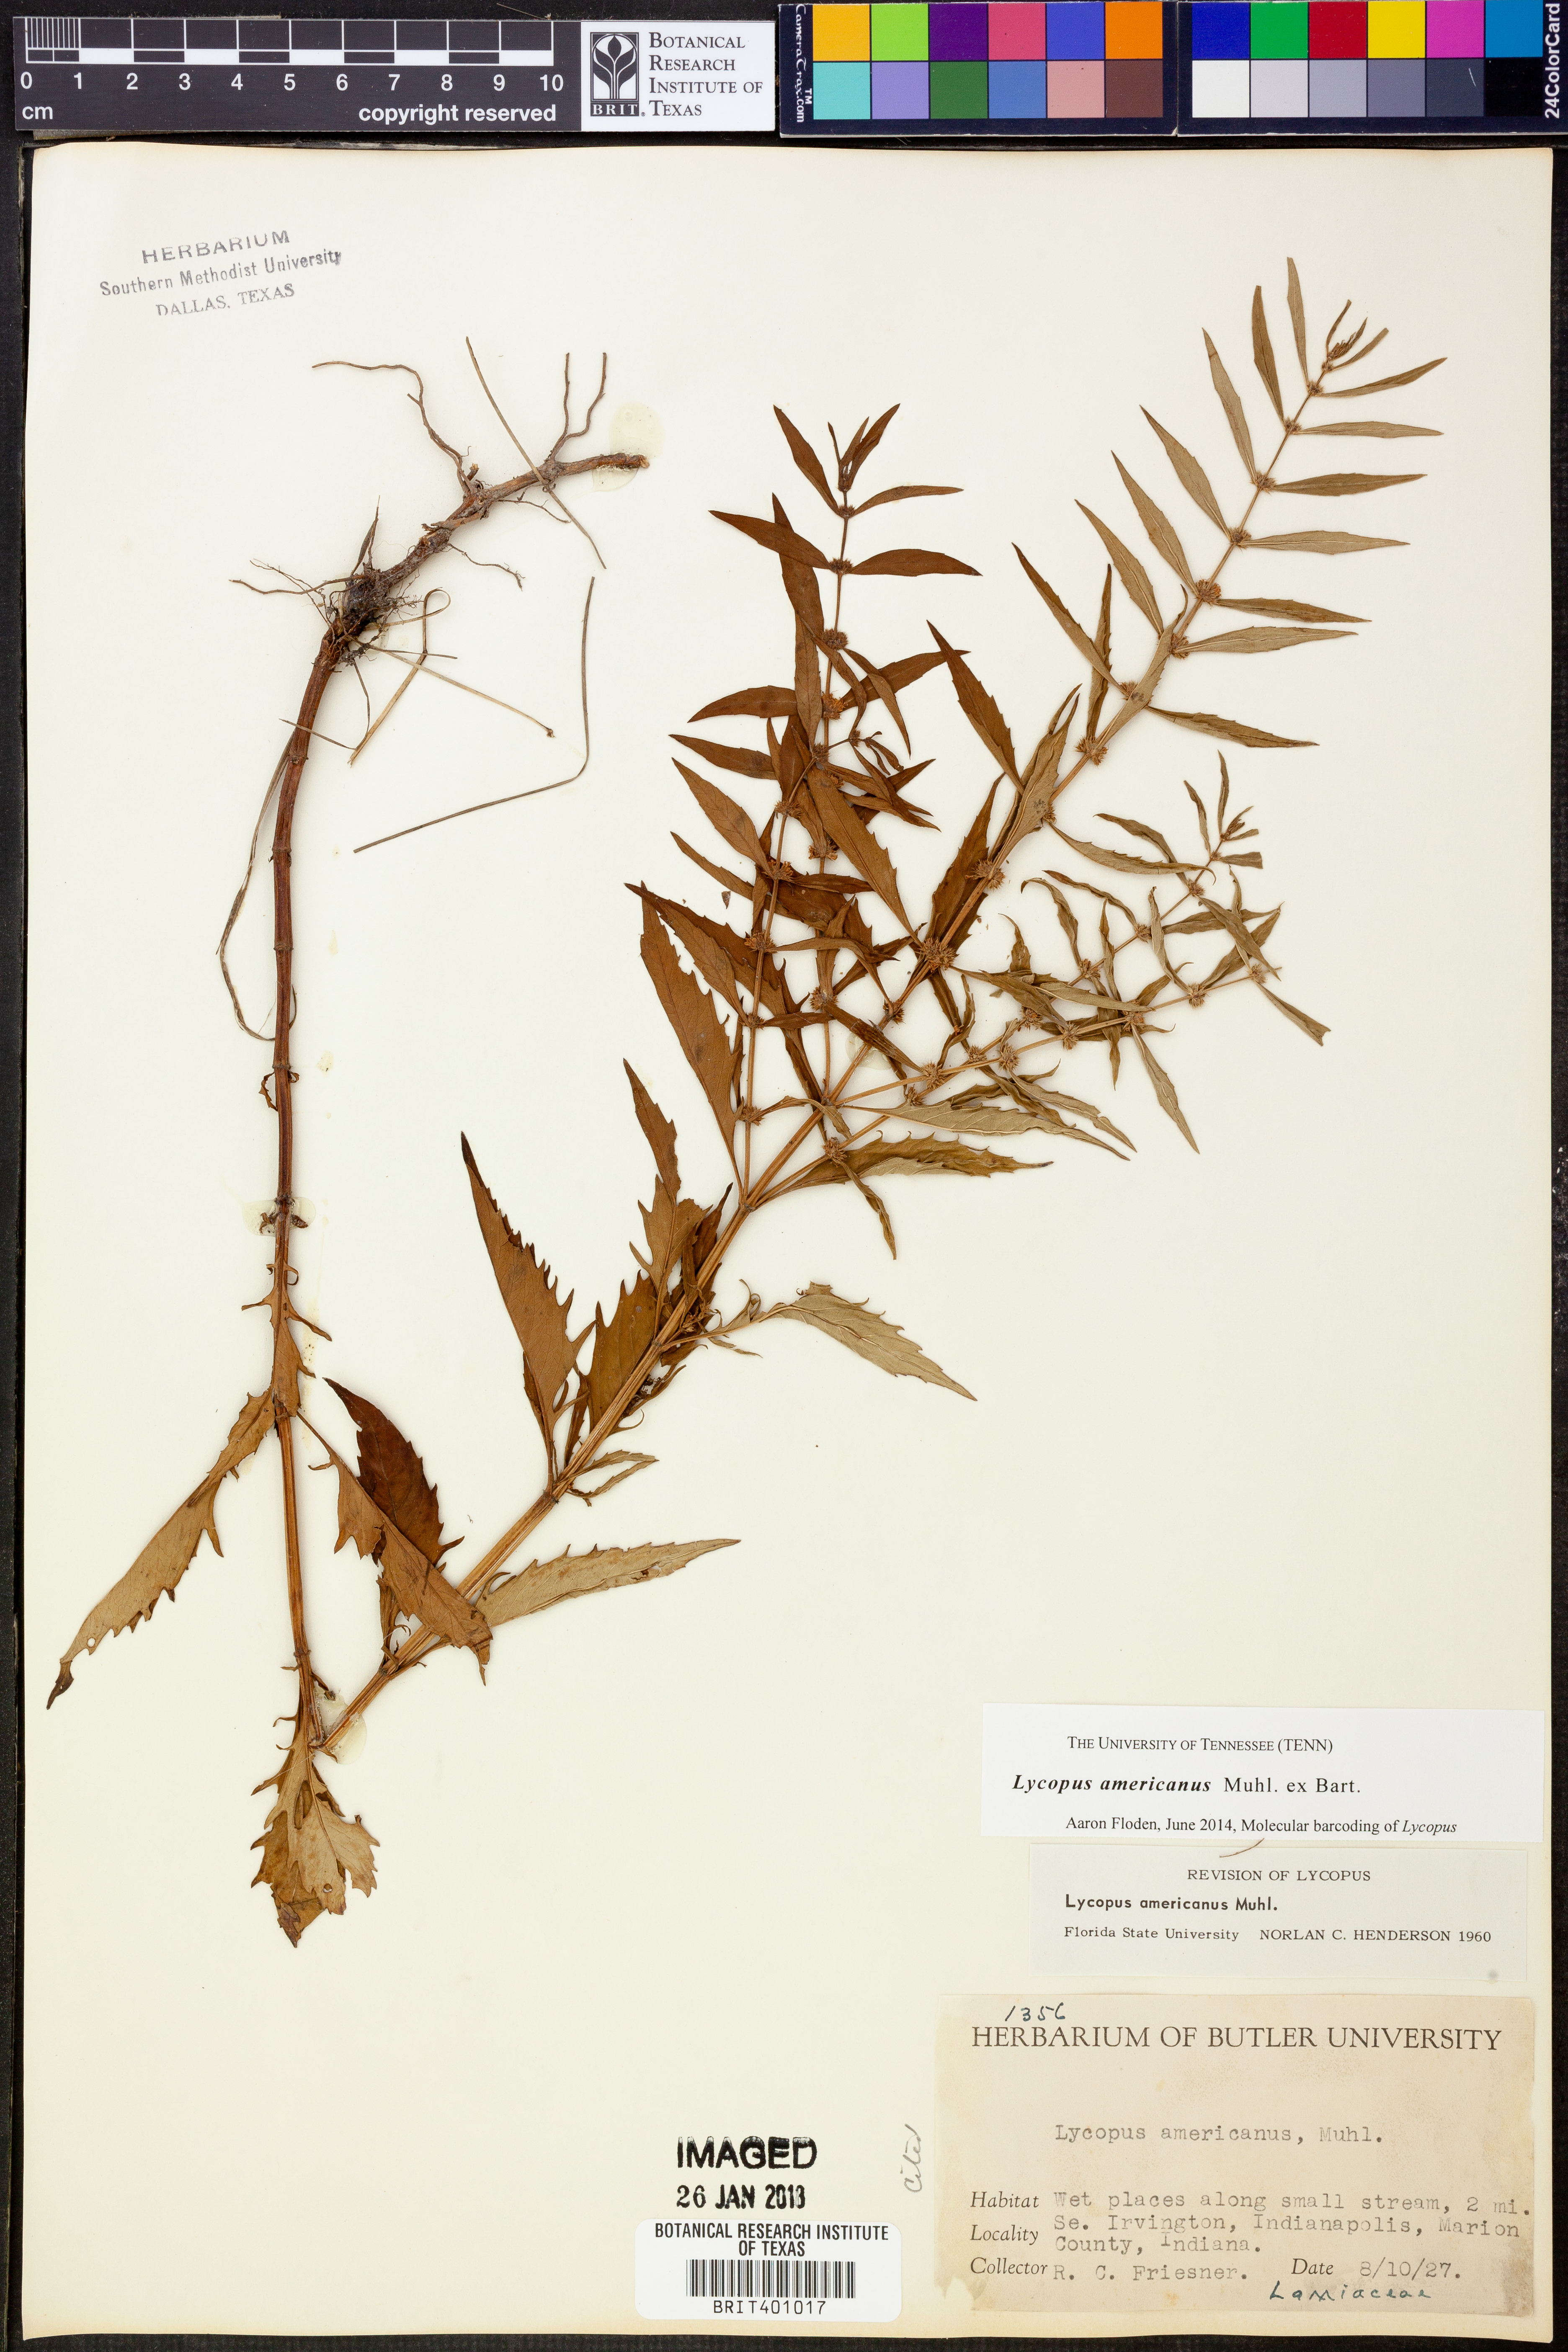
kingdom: Plantae
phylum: Tracheophyta
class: Magnoliopsida
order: Lamiales
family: Lamiaceae
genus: Lycopus
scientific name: Lycopus americanus
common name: American bugleweed
